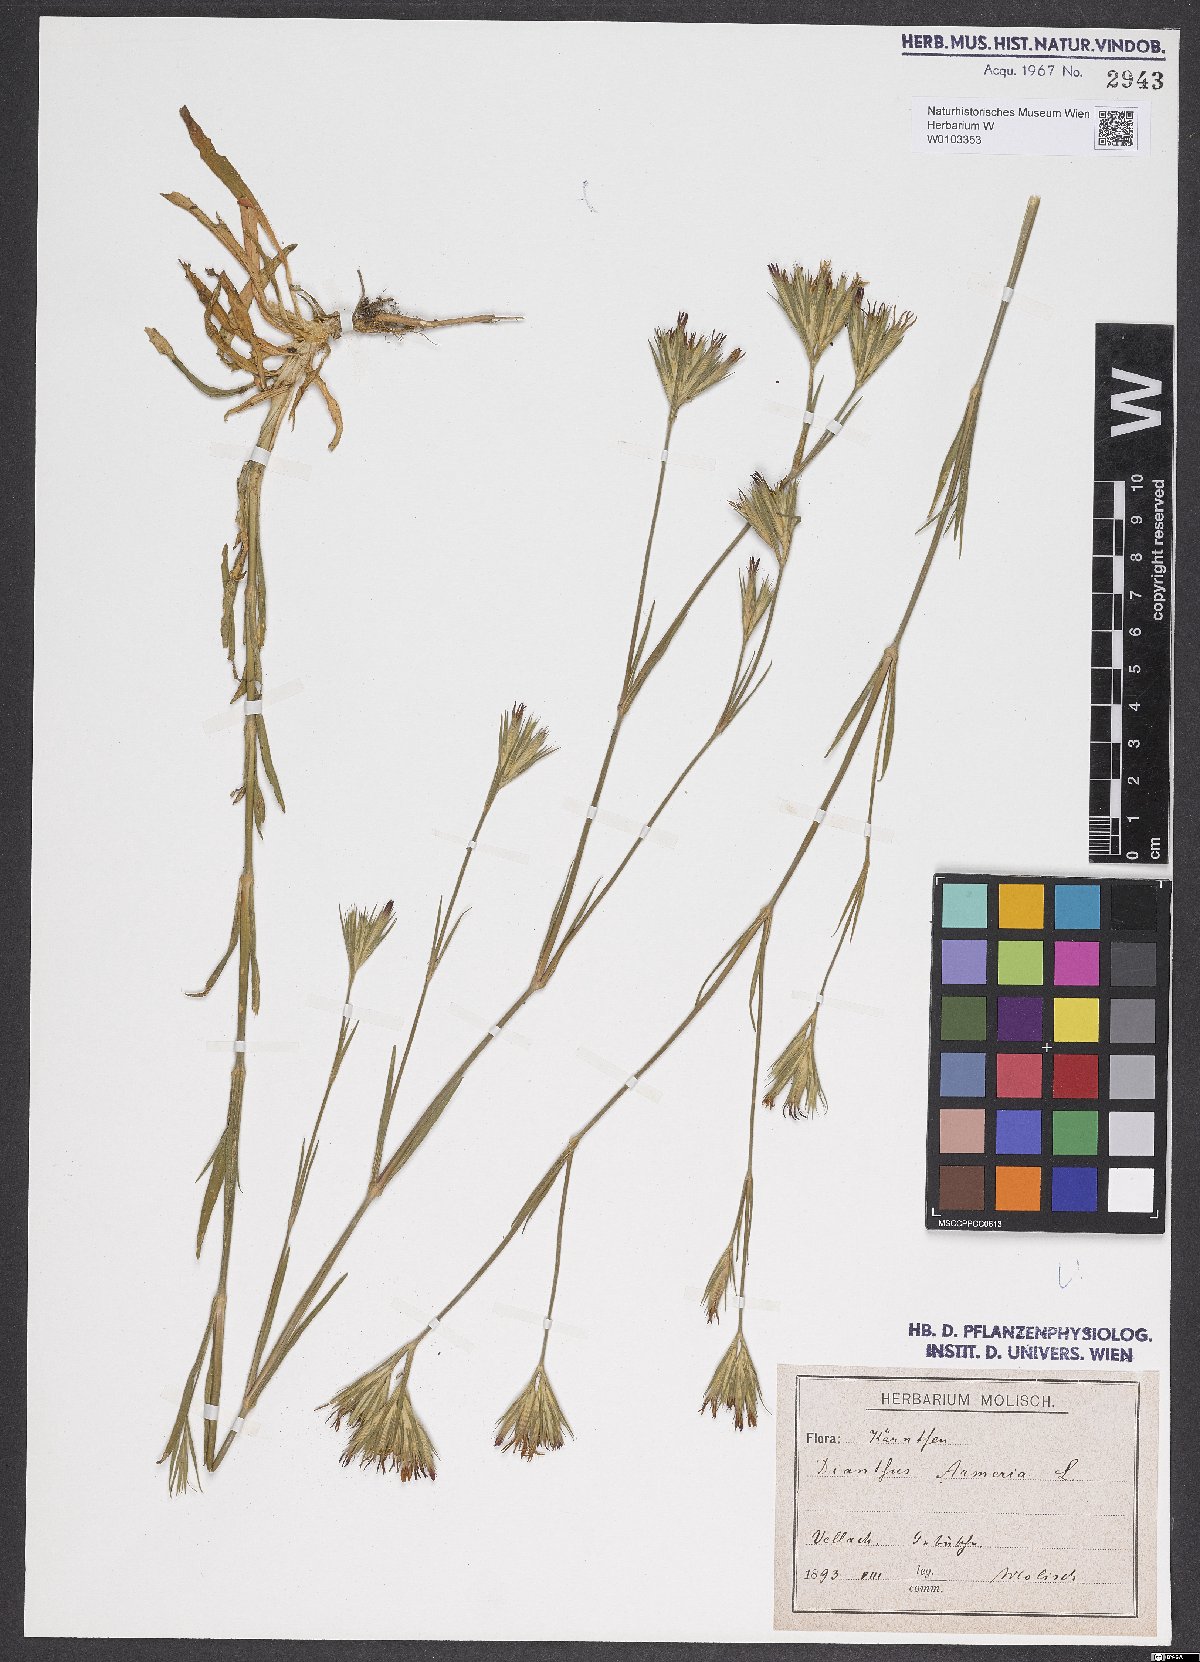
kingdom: Plantae
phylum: Tracheophyta
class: Magnoliopsida
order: Caryophyllales
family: Caryophyllaceae
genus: Dianthus
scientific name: Dianthus armeria
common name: Deptford pink
